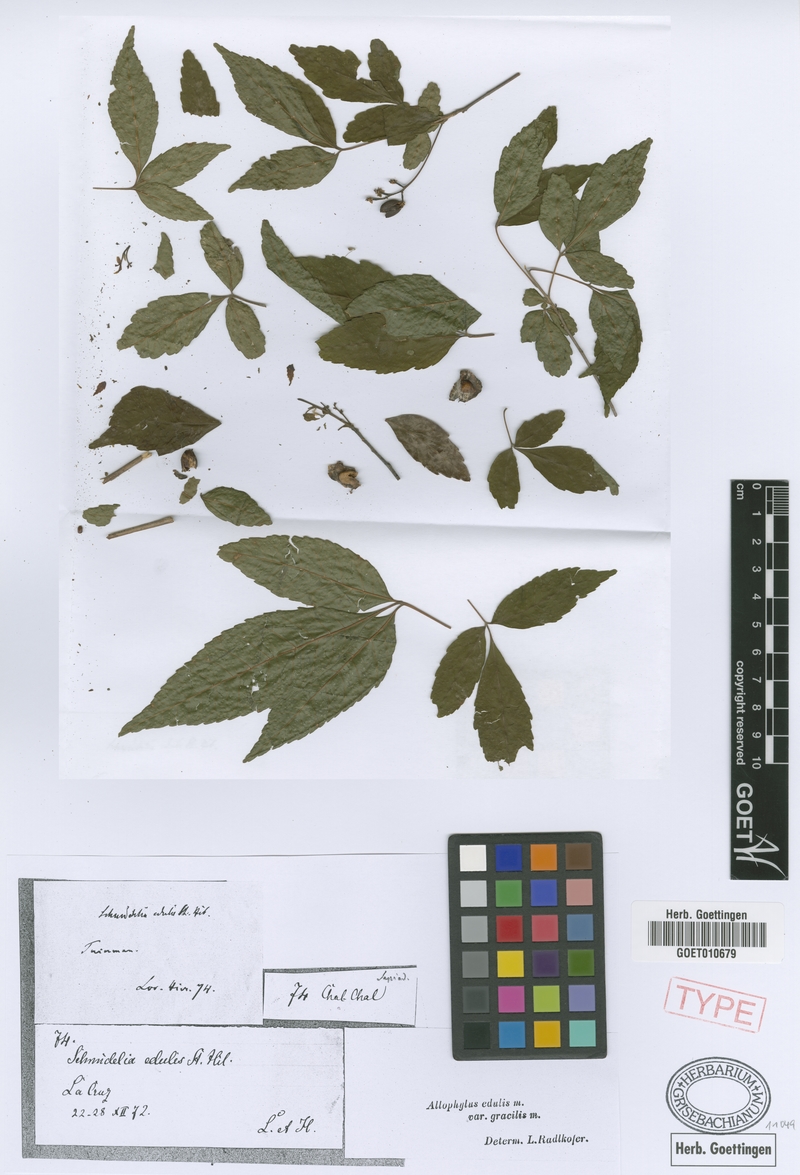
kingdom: Plantae
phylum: Tracheophyta
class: Magnoliopsida
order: Sapindales
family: Sapindaceae
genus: Allophylus
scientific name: Allophylus edulis
